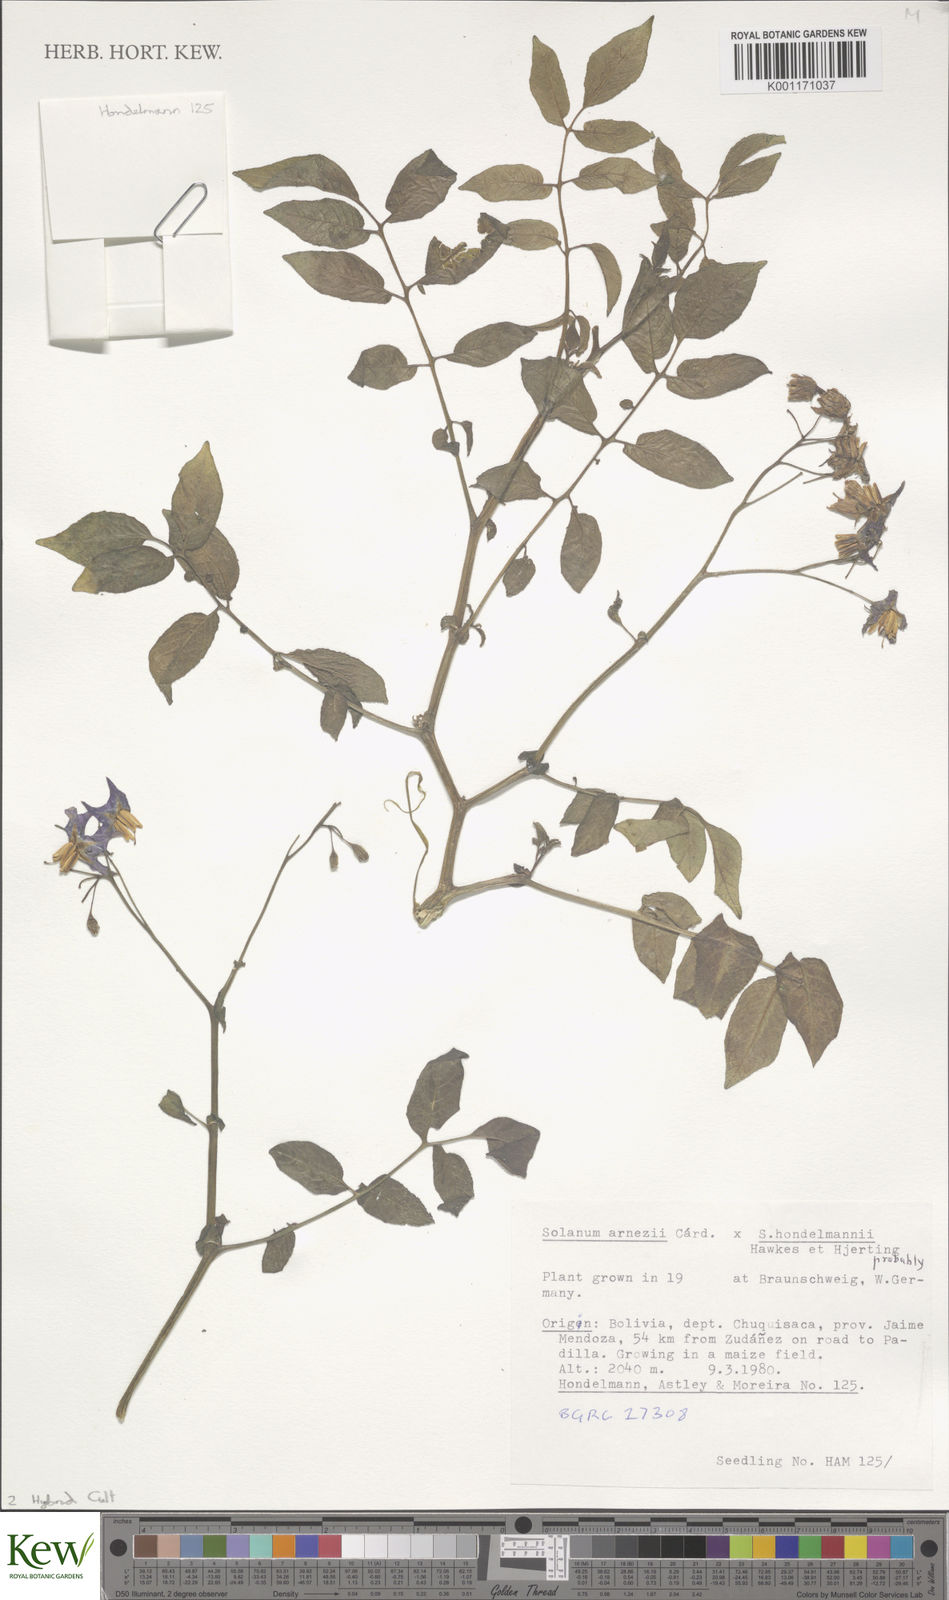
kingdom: Plantae
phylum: Tracheophyta
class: Magnoliopsida
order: Solanales
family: Solanaceae
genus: Solanum
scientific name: Solanum
